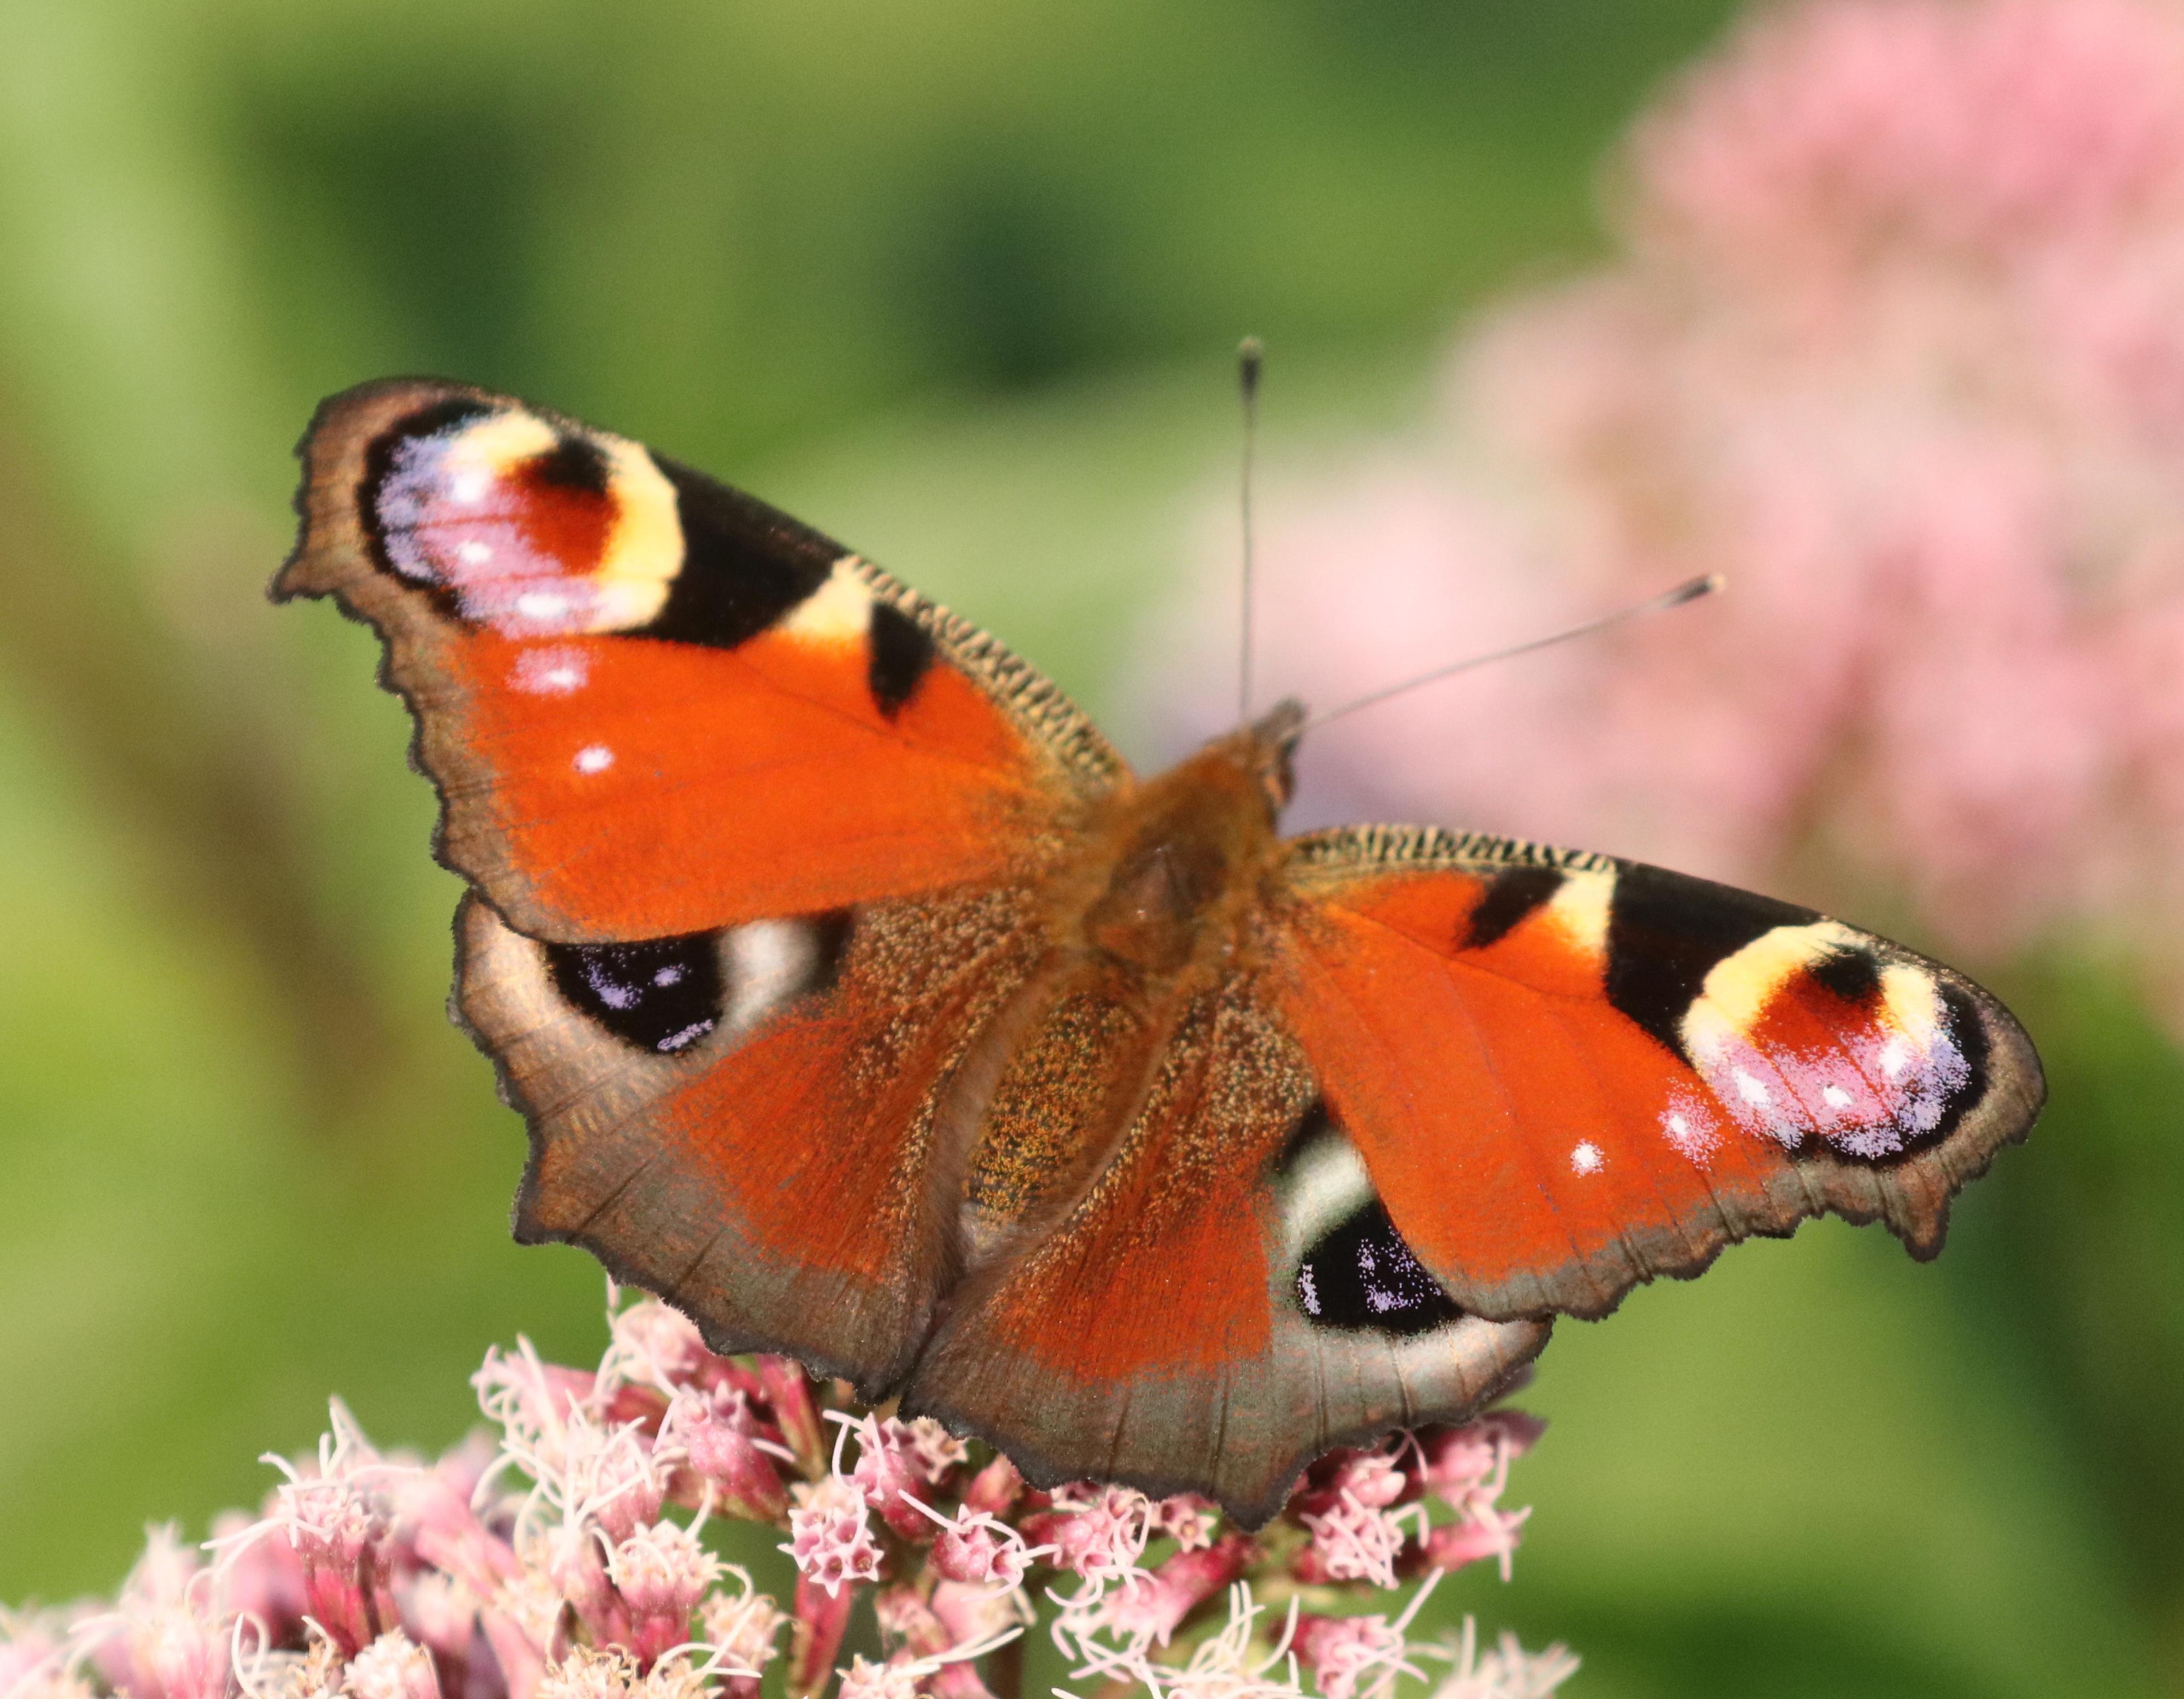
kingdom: Animalia
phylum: Arthropoda
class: Insecta
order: Lepidoptera
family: Nymphalidae
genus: Aglais
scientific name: Aglais io
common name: Dagpåfugleøje
